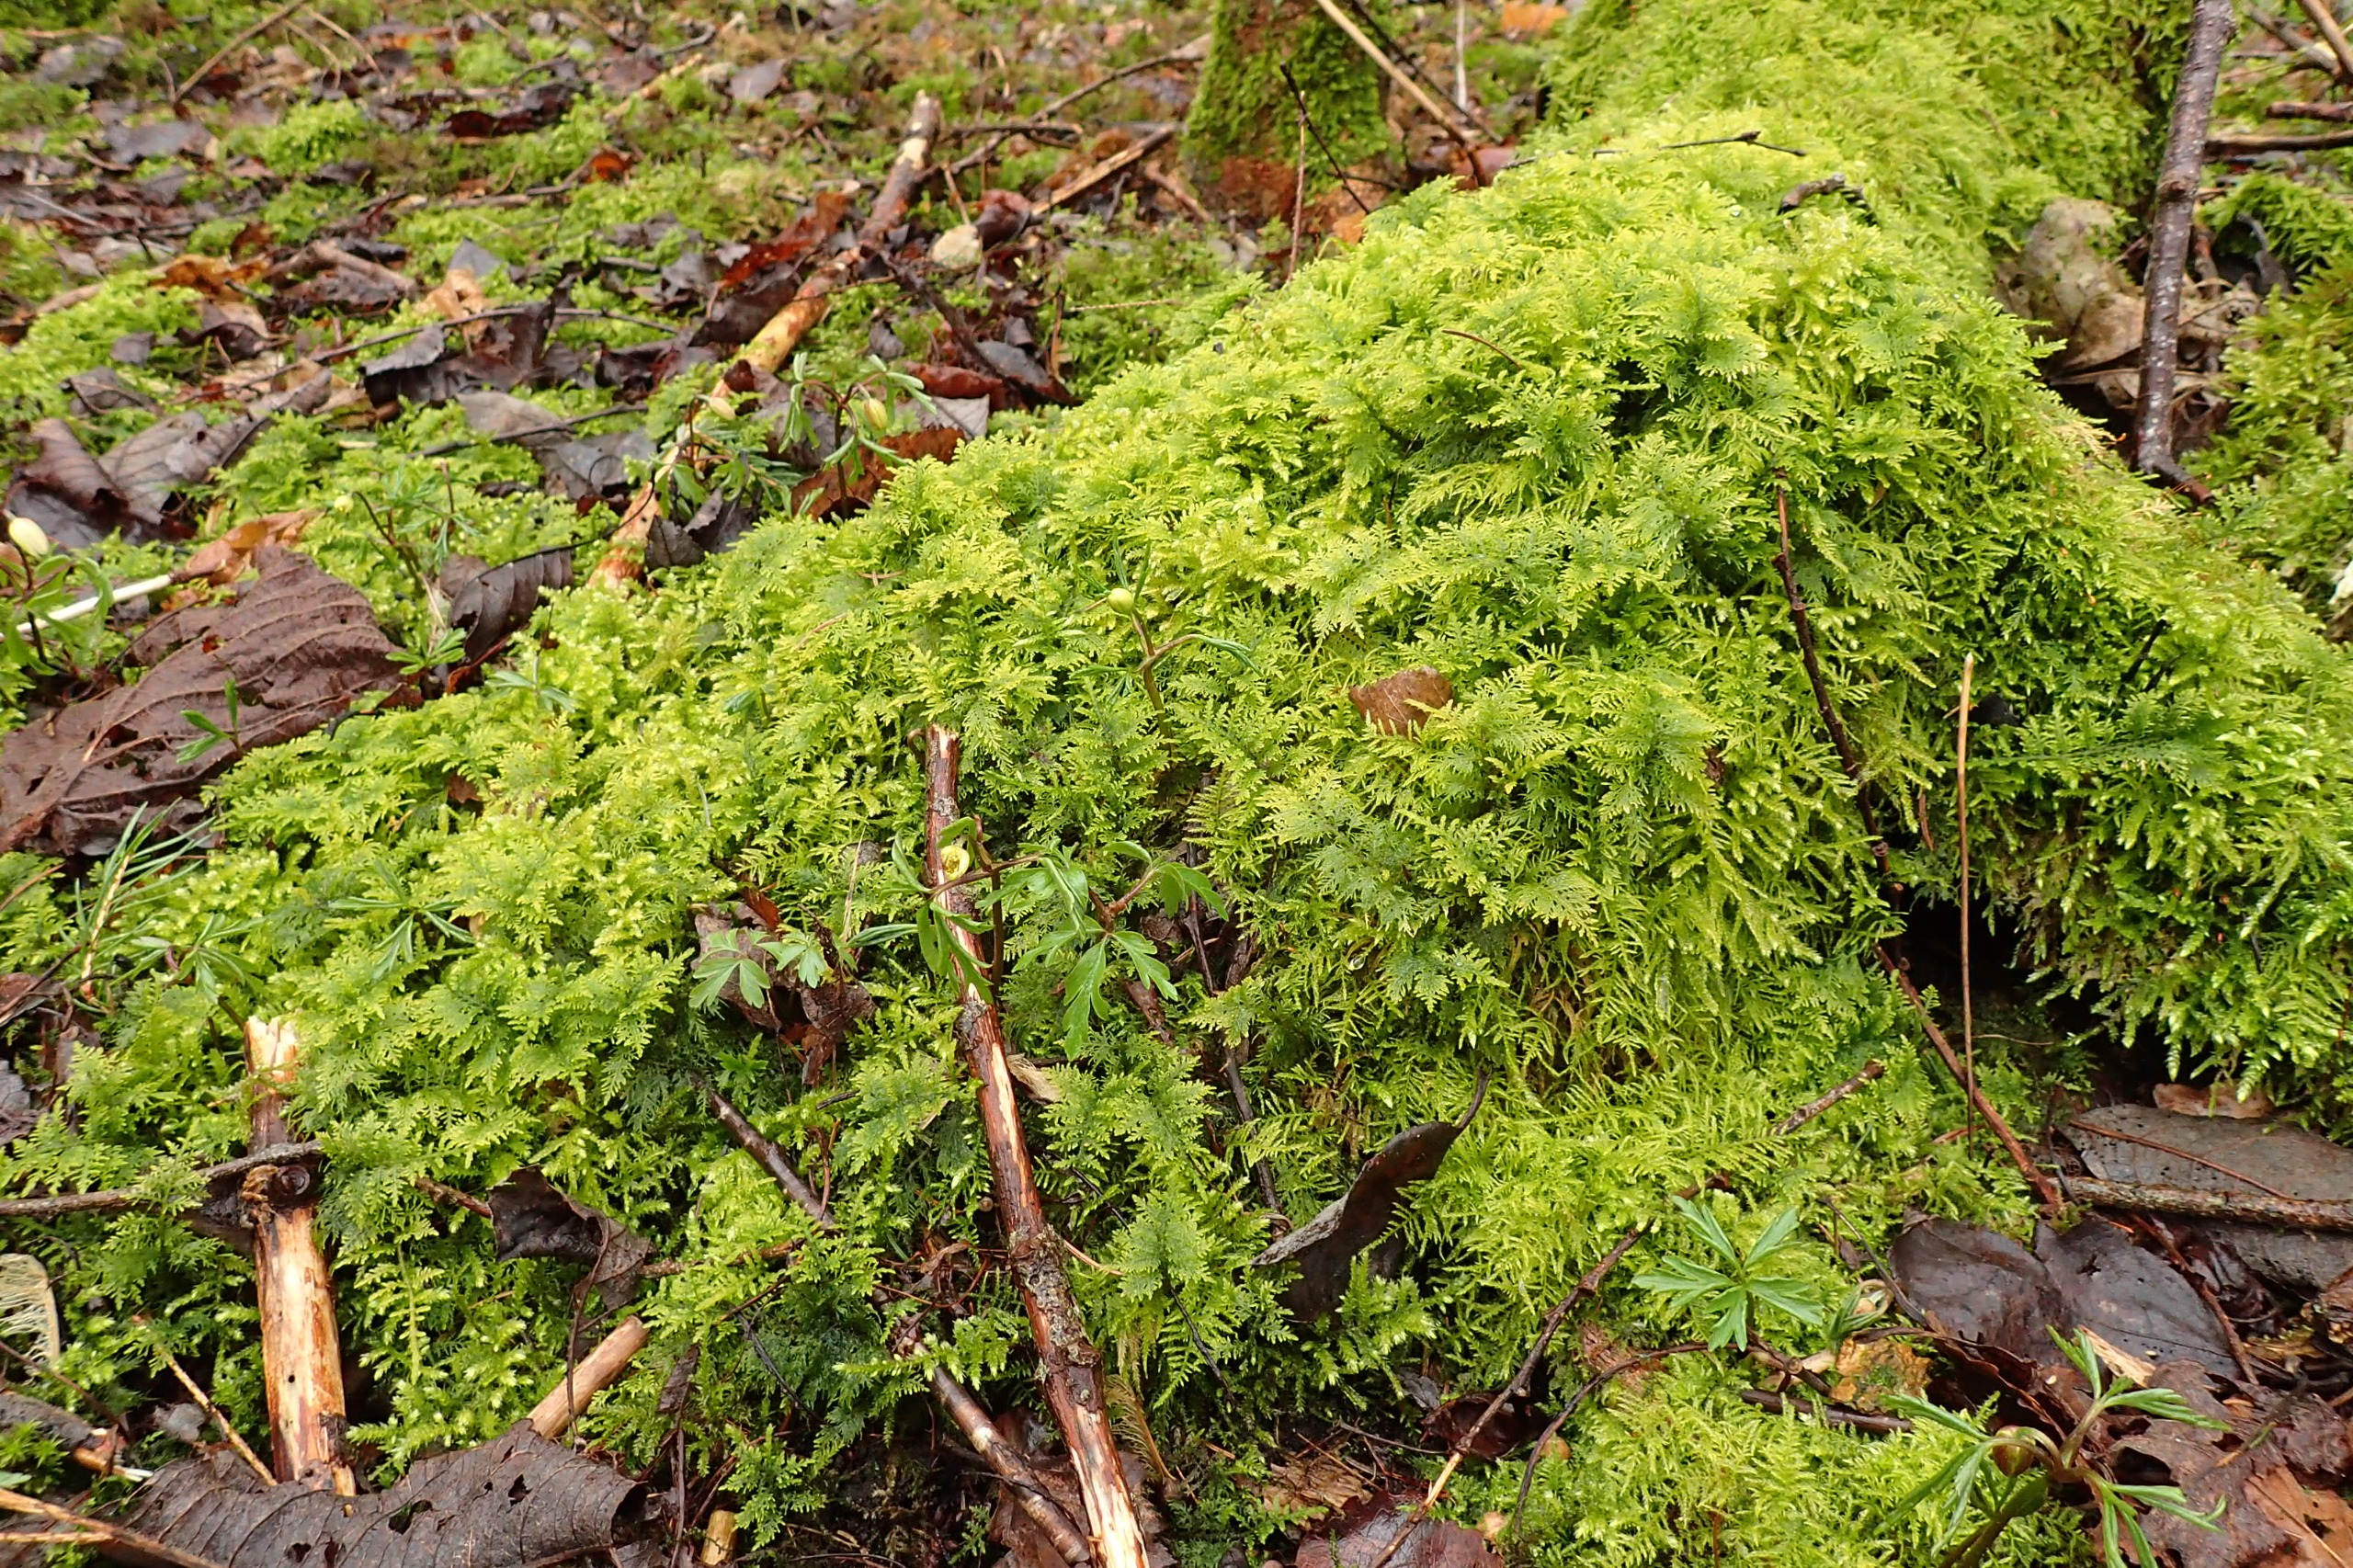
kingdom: Plantae
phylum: Bryophyta
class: Bryopsida
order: Hypnales
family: Thuidiaceae
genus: Thuidium
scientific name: Thuidium tamariscinum
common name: Pryd-bregnemos
